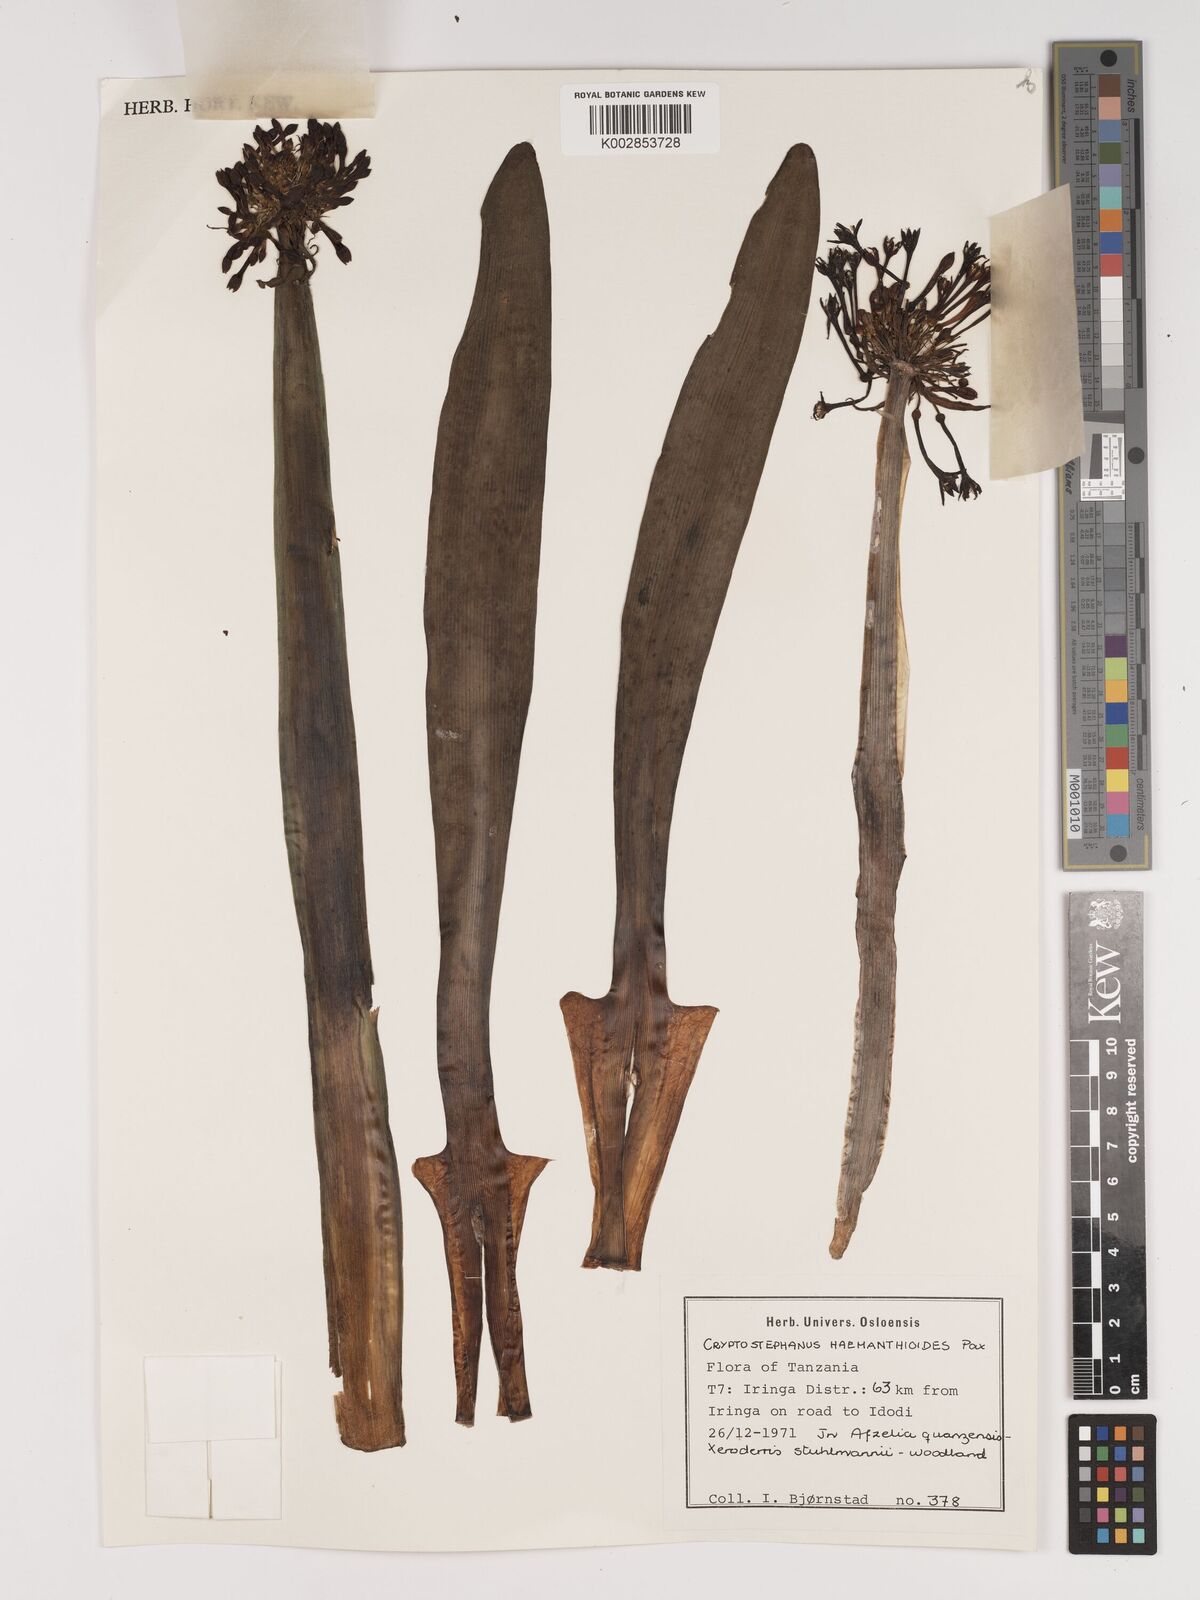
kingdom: Plantae
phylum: Tracheophyta
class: Liliopsida
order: Asparagales
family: Amaryllidaceae
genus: Cryptostephanus
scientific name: Cryptostephanus haemanthoides
